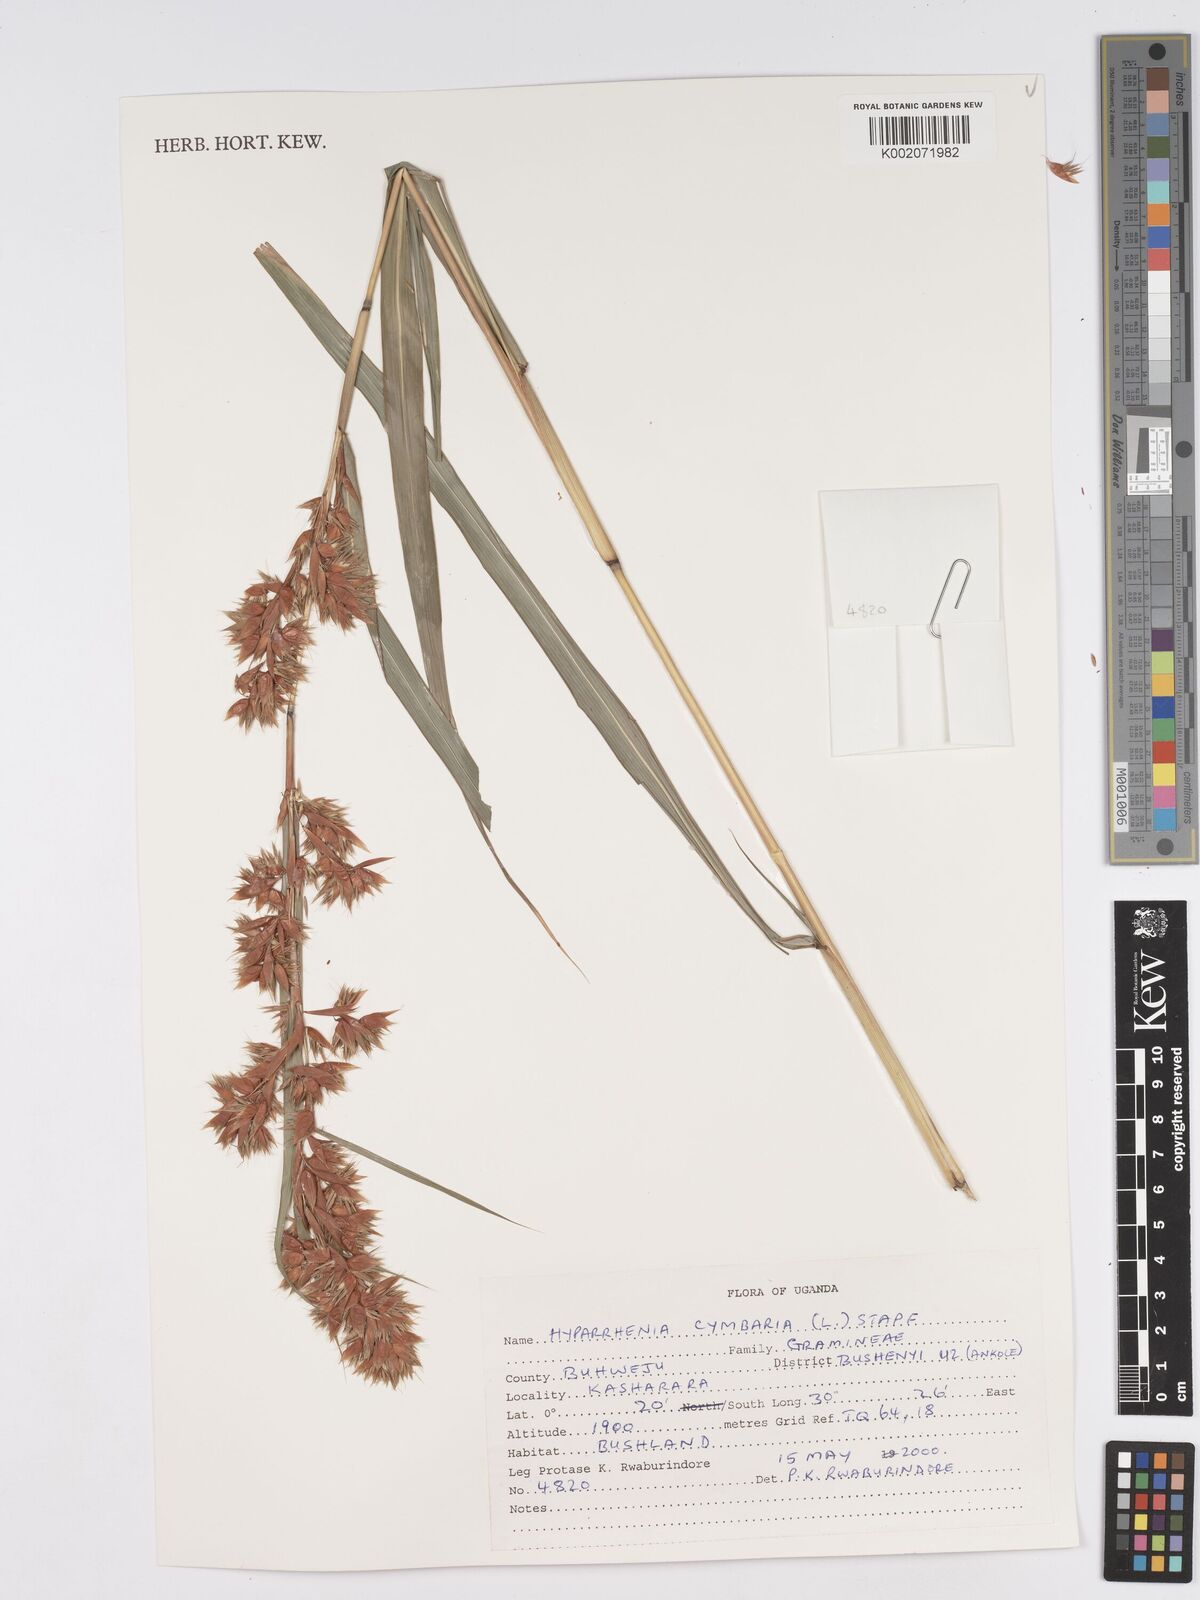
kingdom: Plantae
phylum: Tracheophyta
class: Liliopsida
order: Poales
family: Poaceae
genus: Hyparrhenia
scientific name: Hyparrhenia cymbaria
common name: Boat thatching grass
